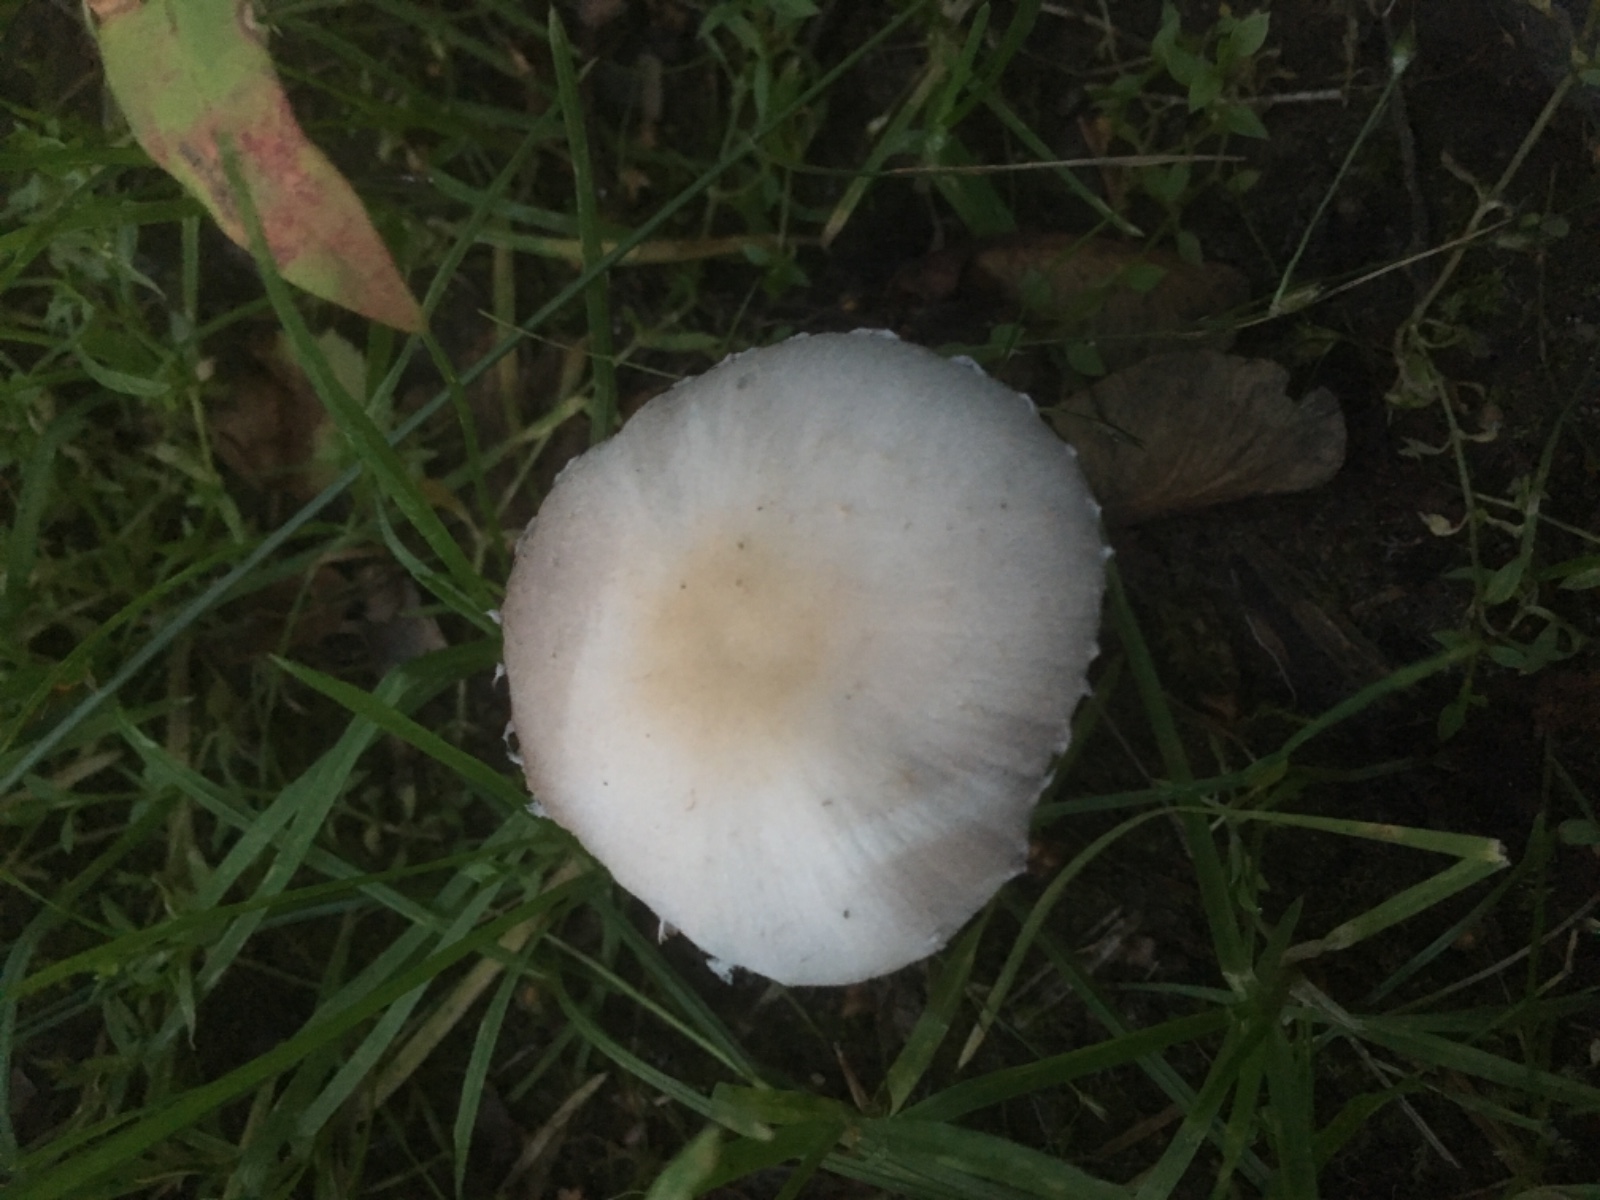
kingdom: Fungi
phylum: Basidiomycota
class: Agaricomycetes
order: Agaricales
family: Psathyrellaceae
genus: Candolleomyces
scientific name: Candolleomyces candolleanus
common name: Candolles mørkhat
